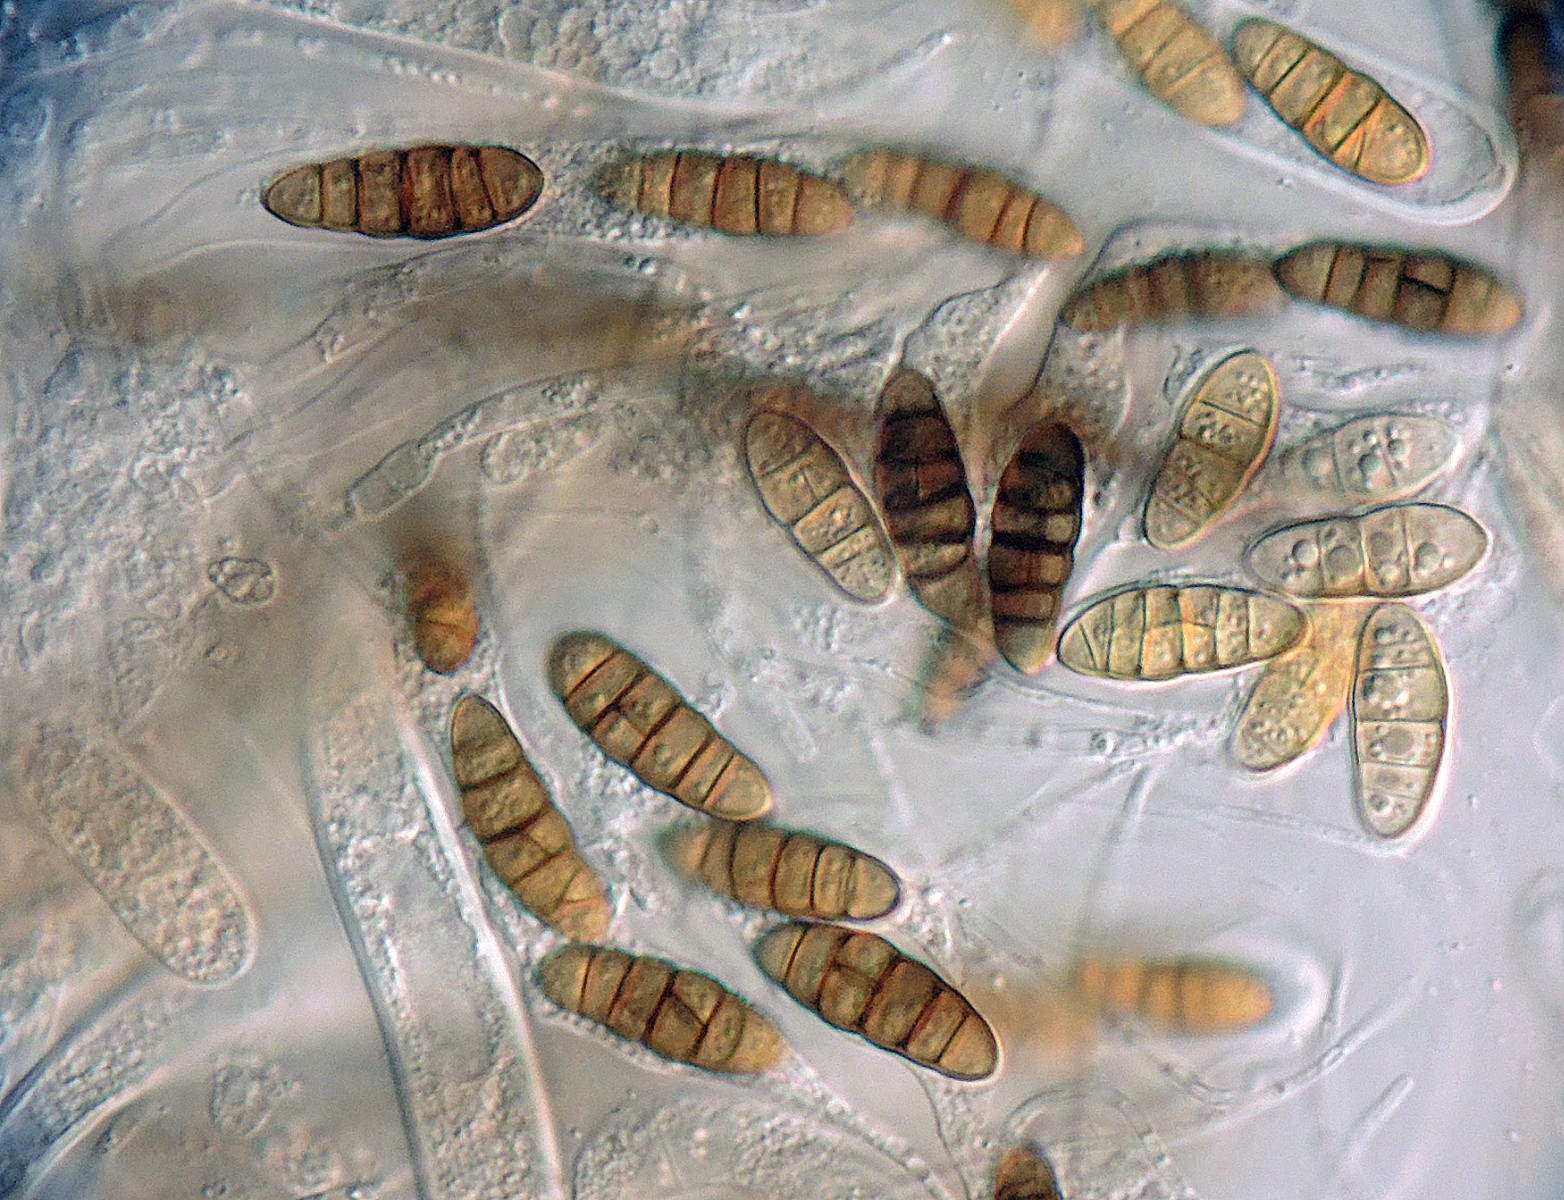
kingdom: Fungi
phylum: Ascomycota
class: Dothideomycetes
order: Pleosporales
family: Lophiostomataceae
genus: Lophiostoma
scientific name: Lophiostoma compressum
